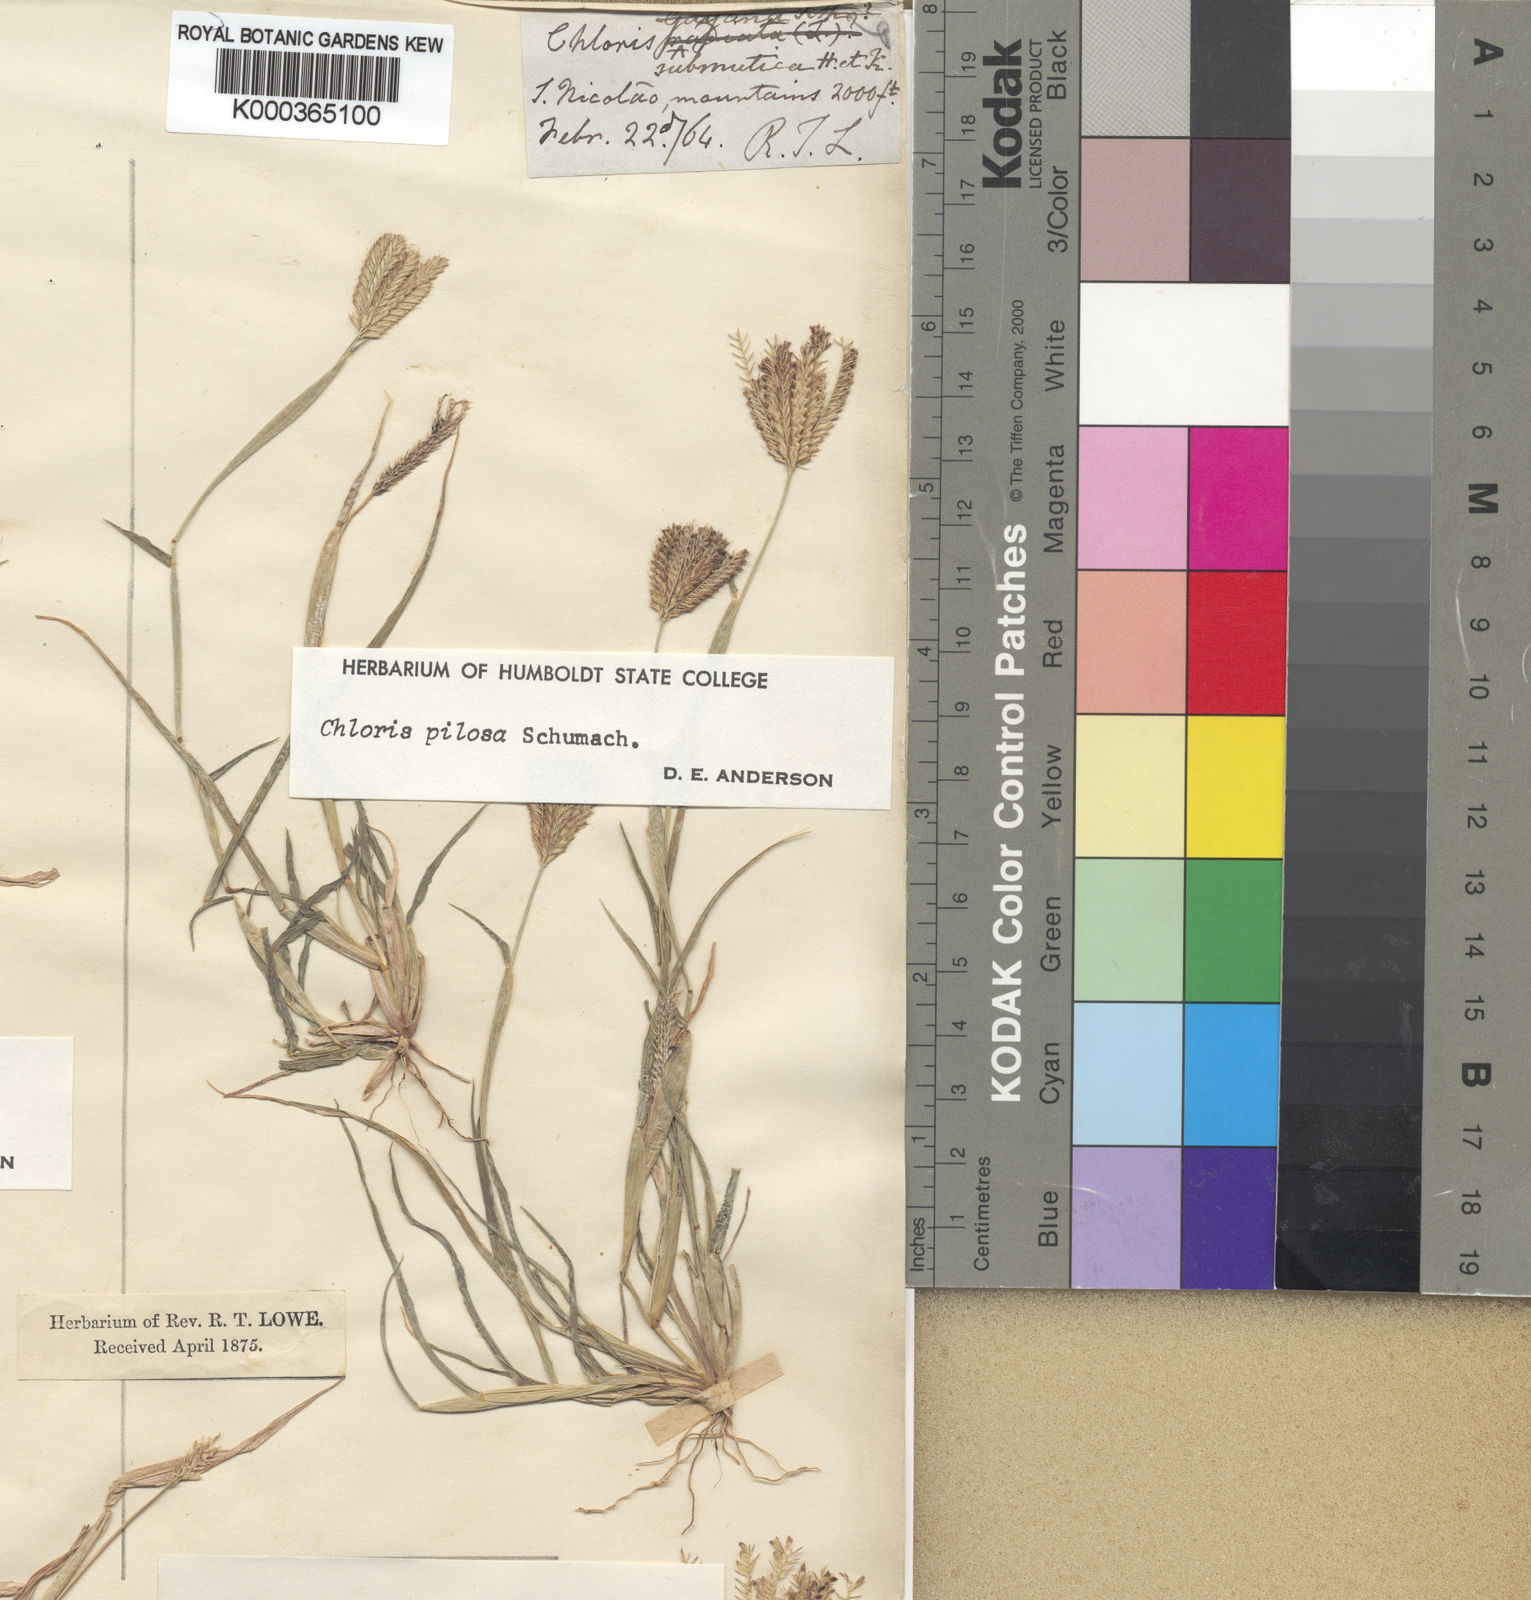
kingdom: Plantae
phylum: Tracheophyta
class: Liliopsida
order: Poales
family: Poaceae
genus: Chloris
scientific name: Chloris pilosa
